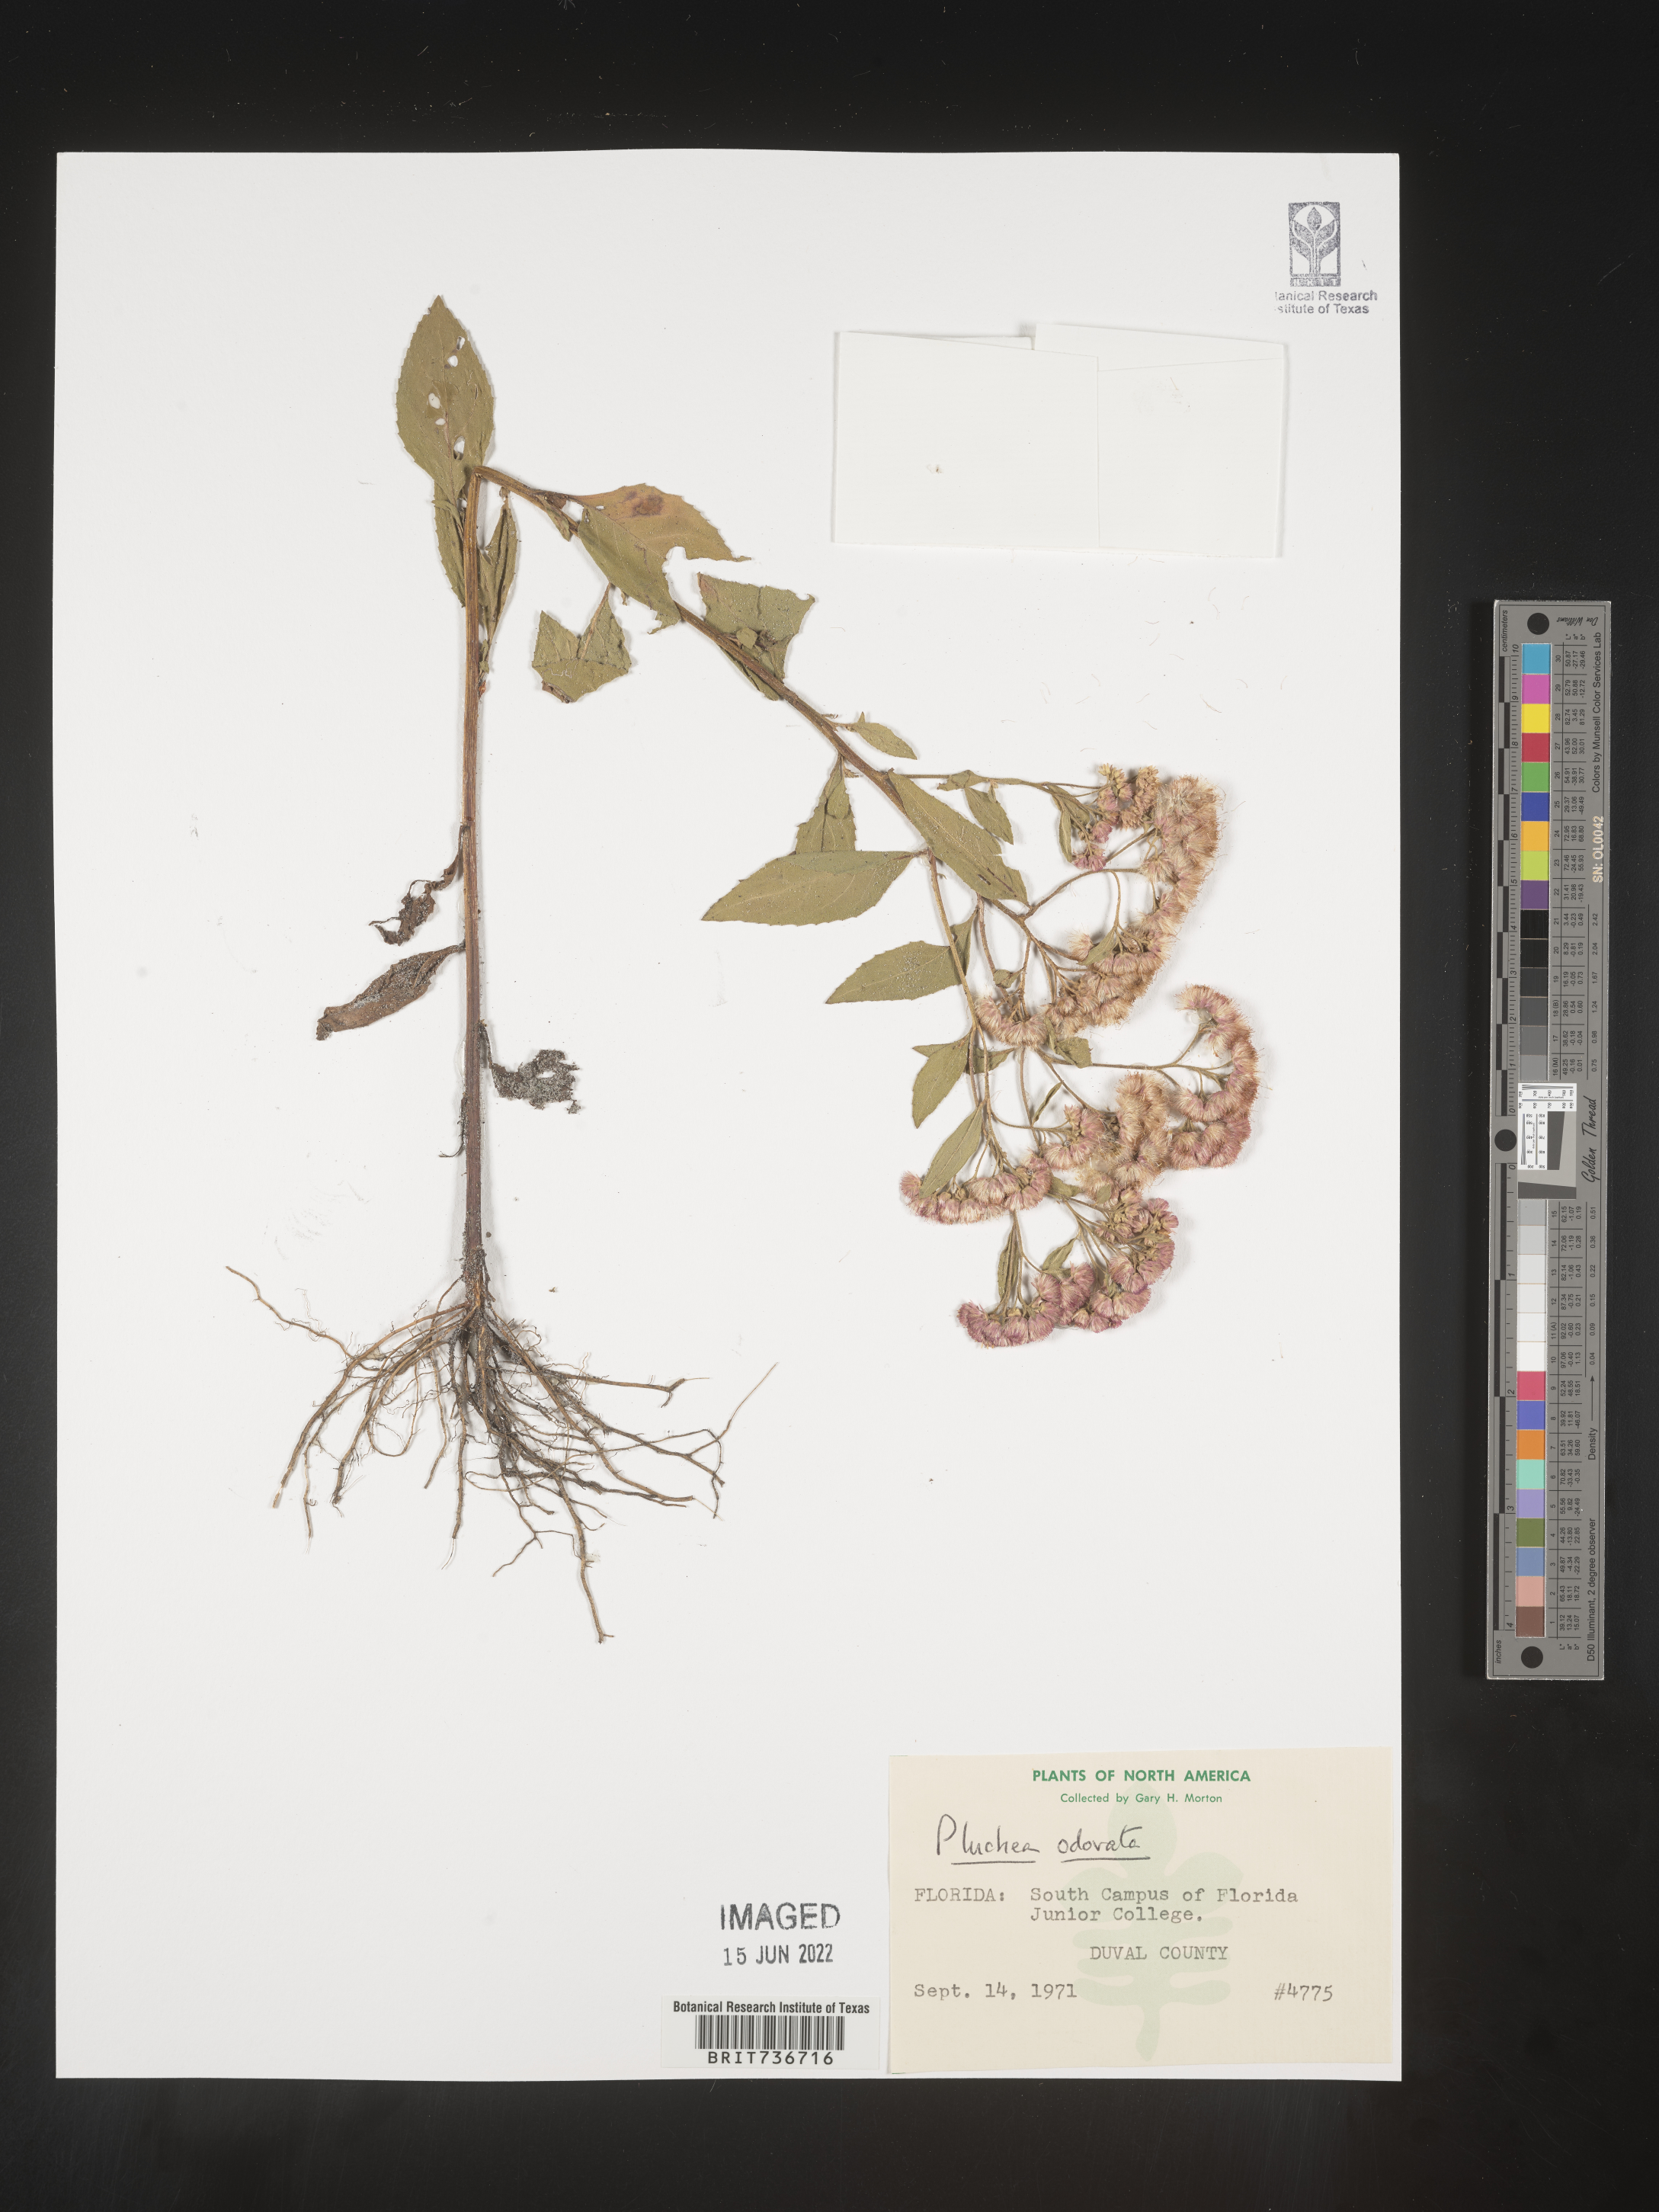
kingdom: Plantae
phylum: Tracheophyta
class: Magnoliopsida
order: Asterales
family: Asteraceae
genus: Pluchea
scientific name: Pluchea odorata
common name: Saltmarsh fleabane
